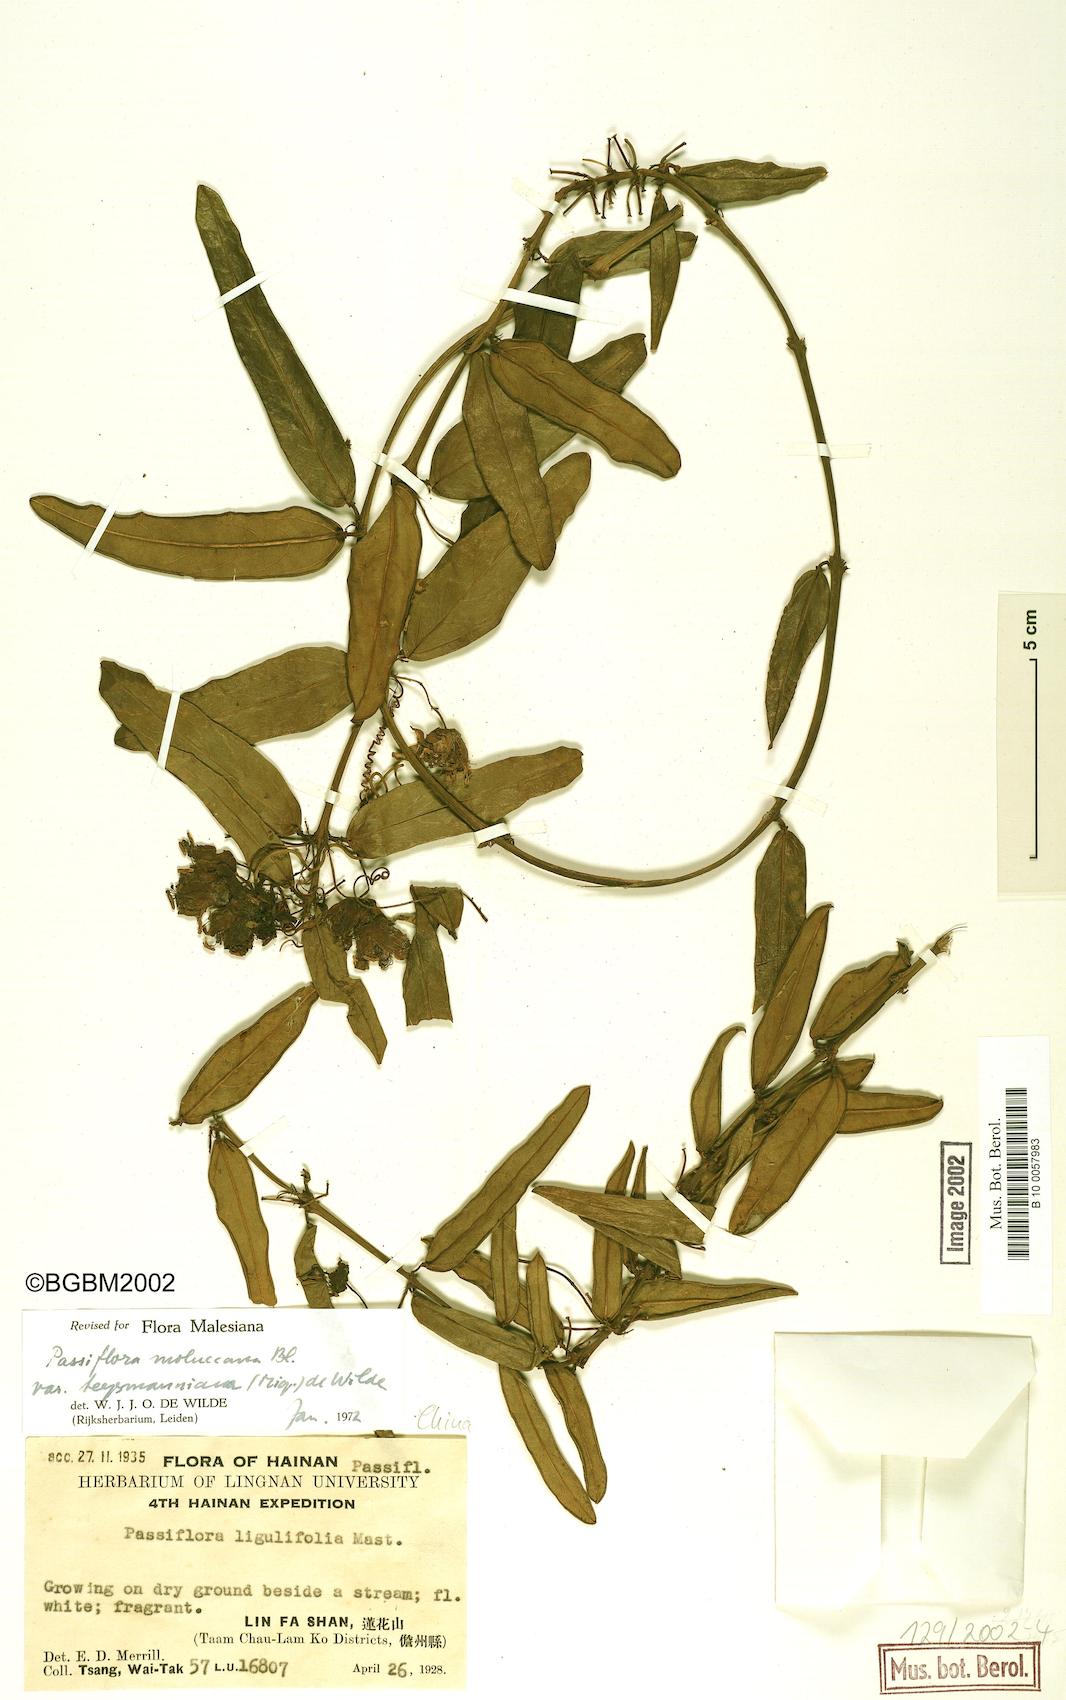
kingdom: Plantae
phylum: Tracheophyta
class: Magnoliopsida
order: Malpighiales
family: Passifloraceae
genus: Passiflora
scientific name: Passiflora moluccana
